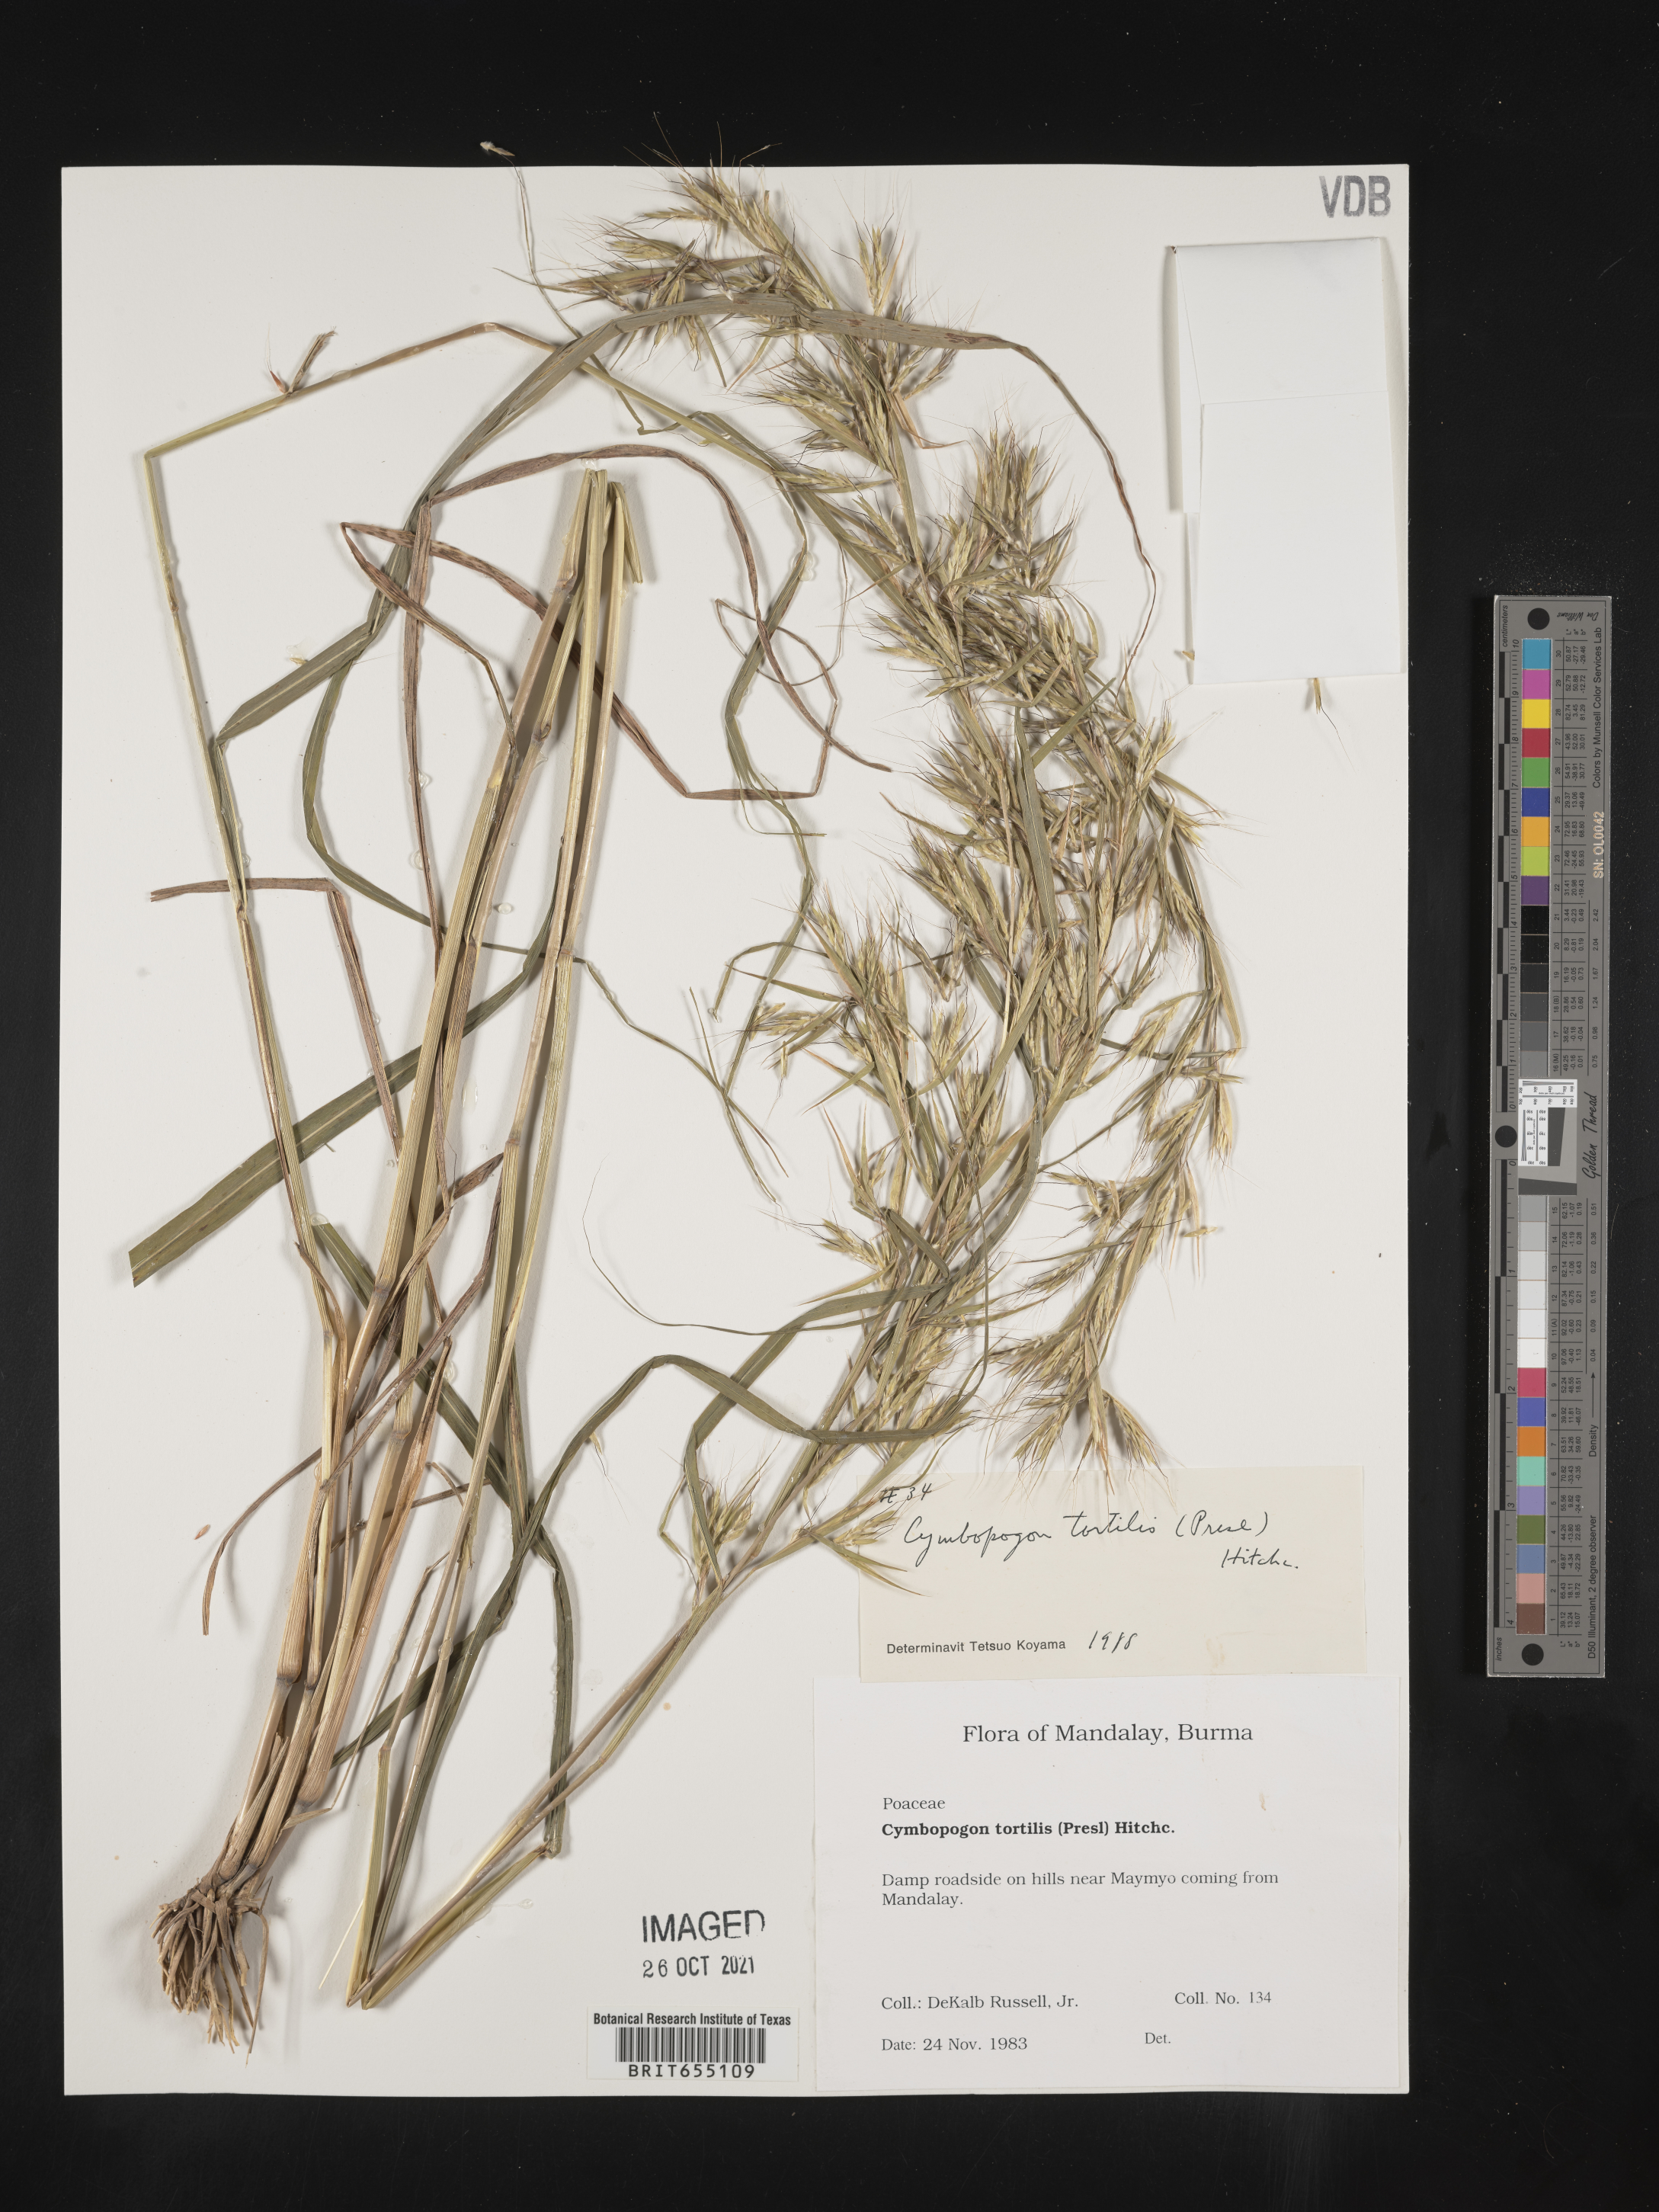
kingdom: Plantae
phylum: Tracheophyta
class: Liliopsida
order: Poales
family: Poaceae
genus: Cymbopogon
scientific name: Cymbopogon
